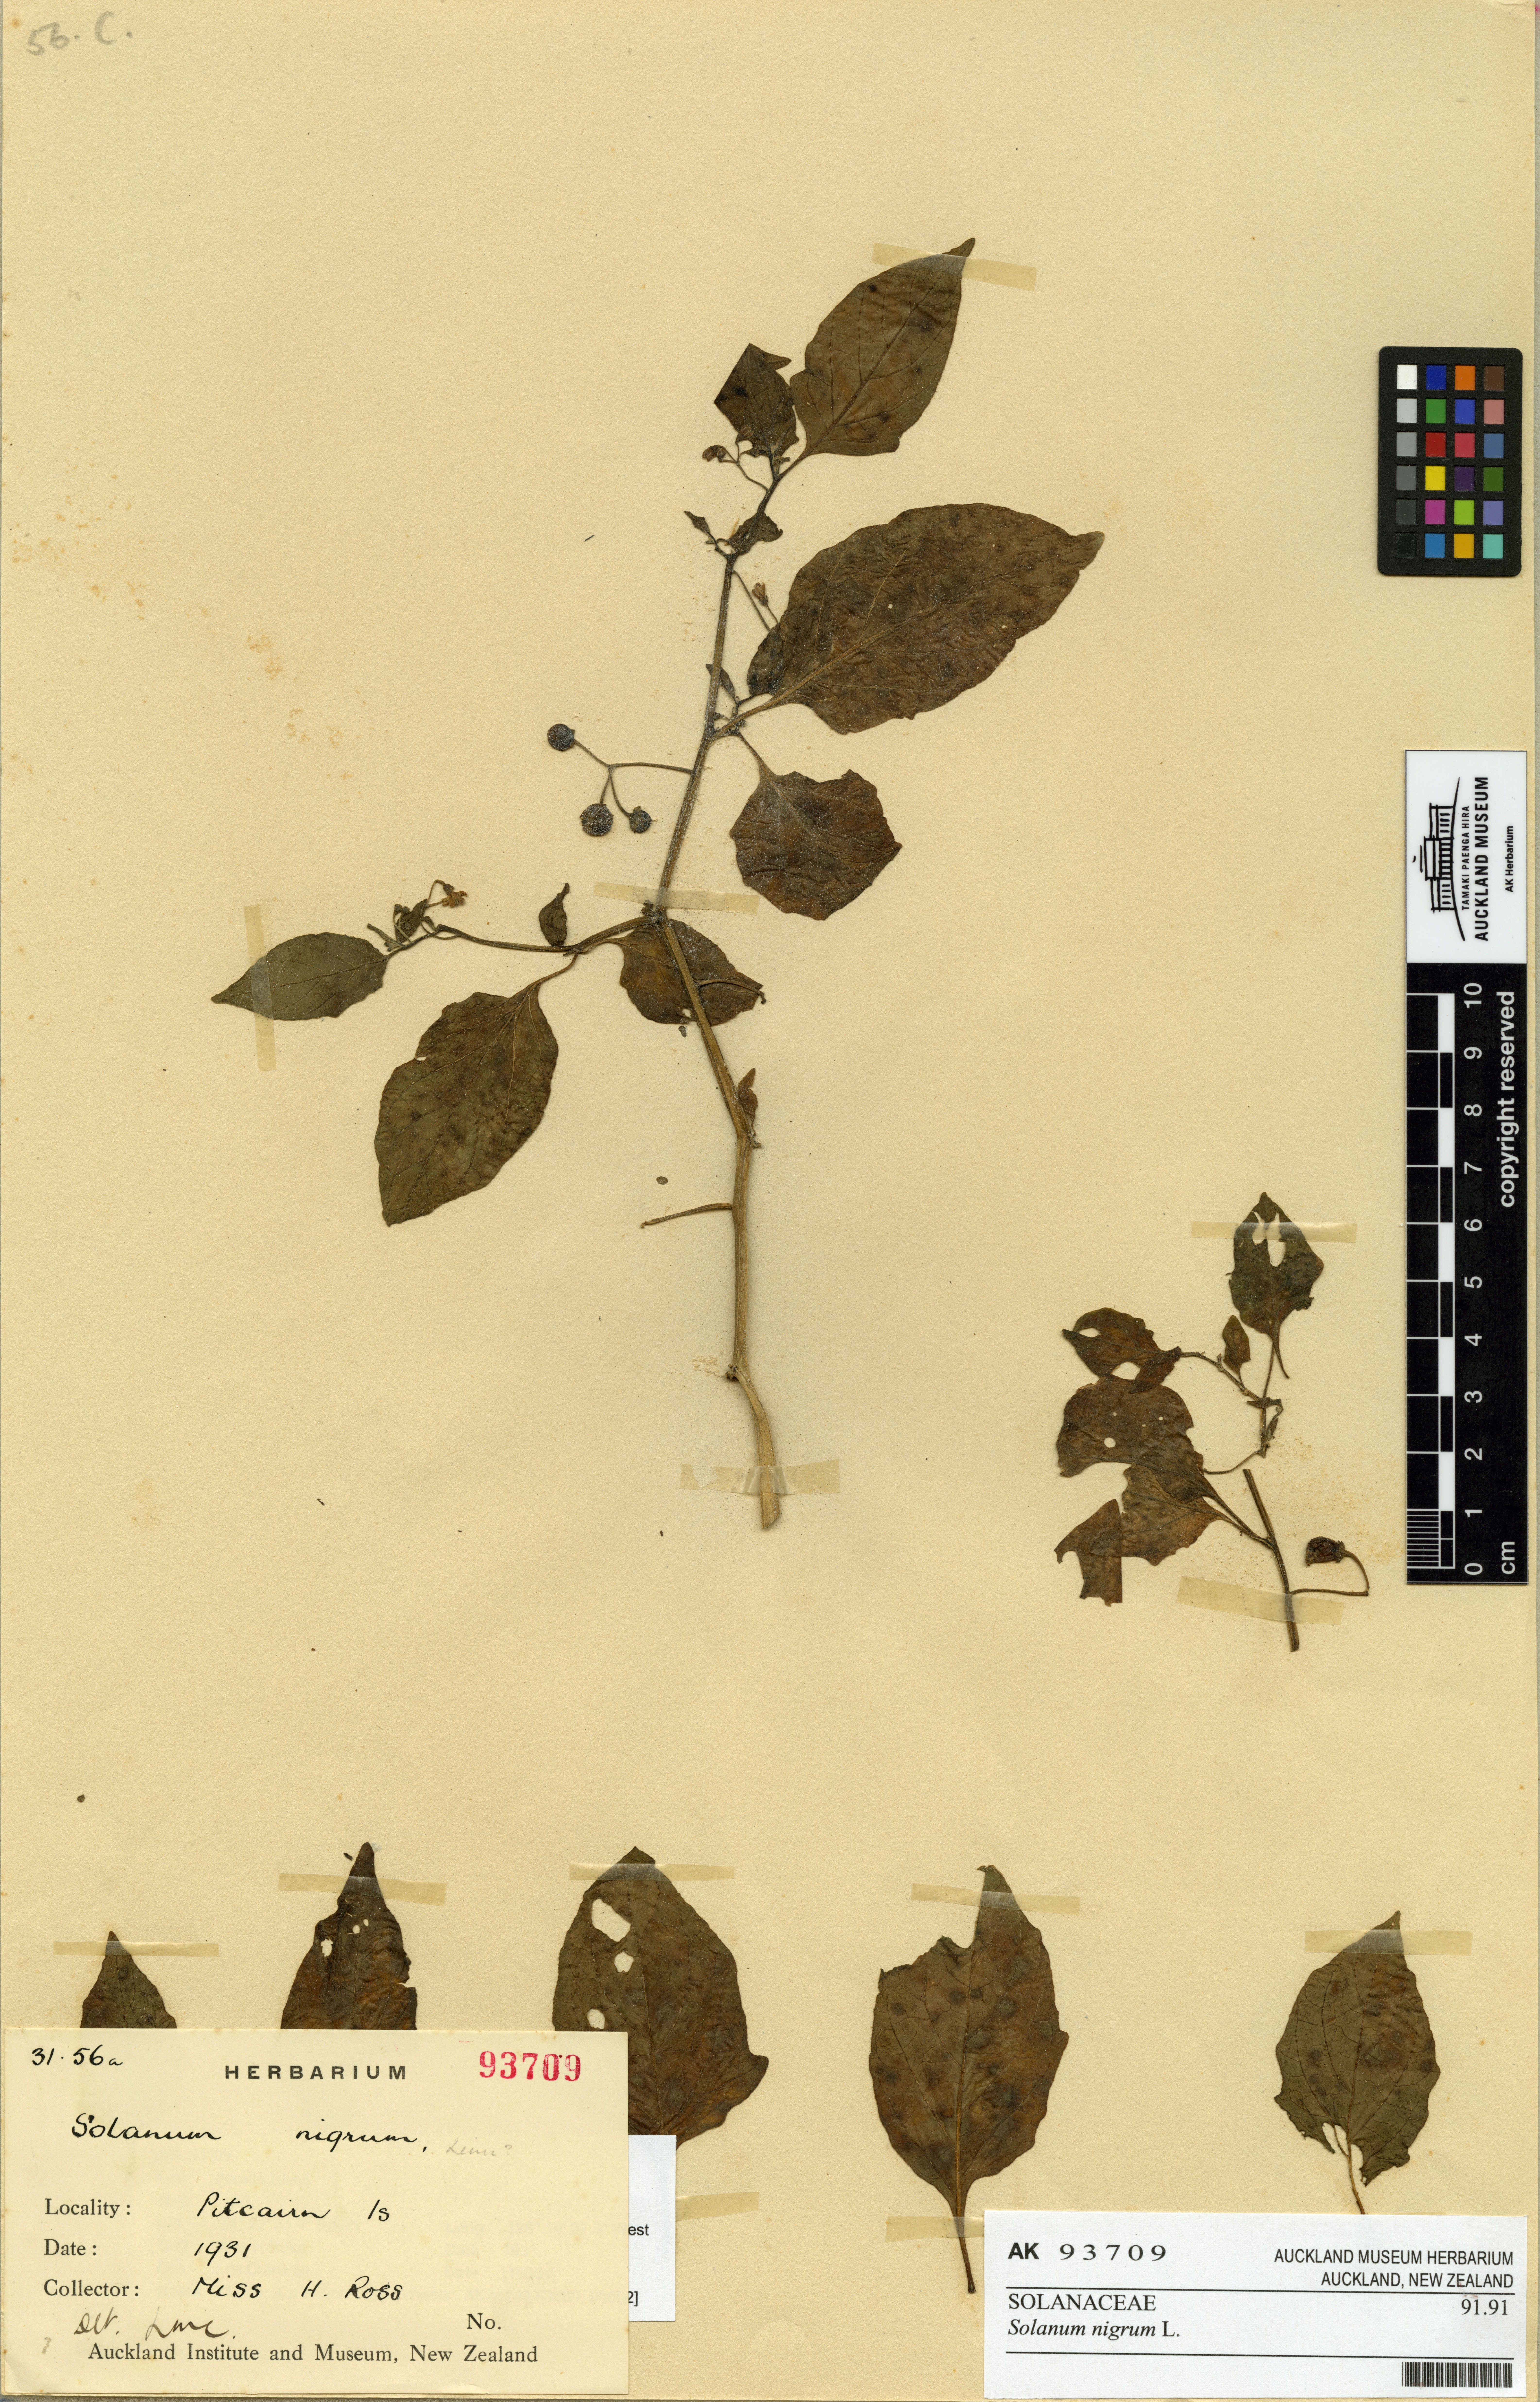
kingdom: Plantae
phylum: Tracheophyta
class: Magnoliopsida
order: Solanales
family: Solanaceae
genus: Solanum
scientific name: Solanum opacum
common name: Green-berry nightshade
